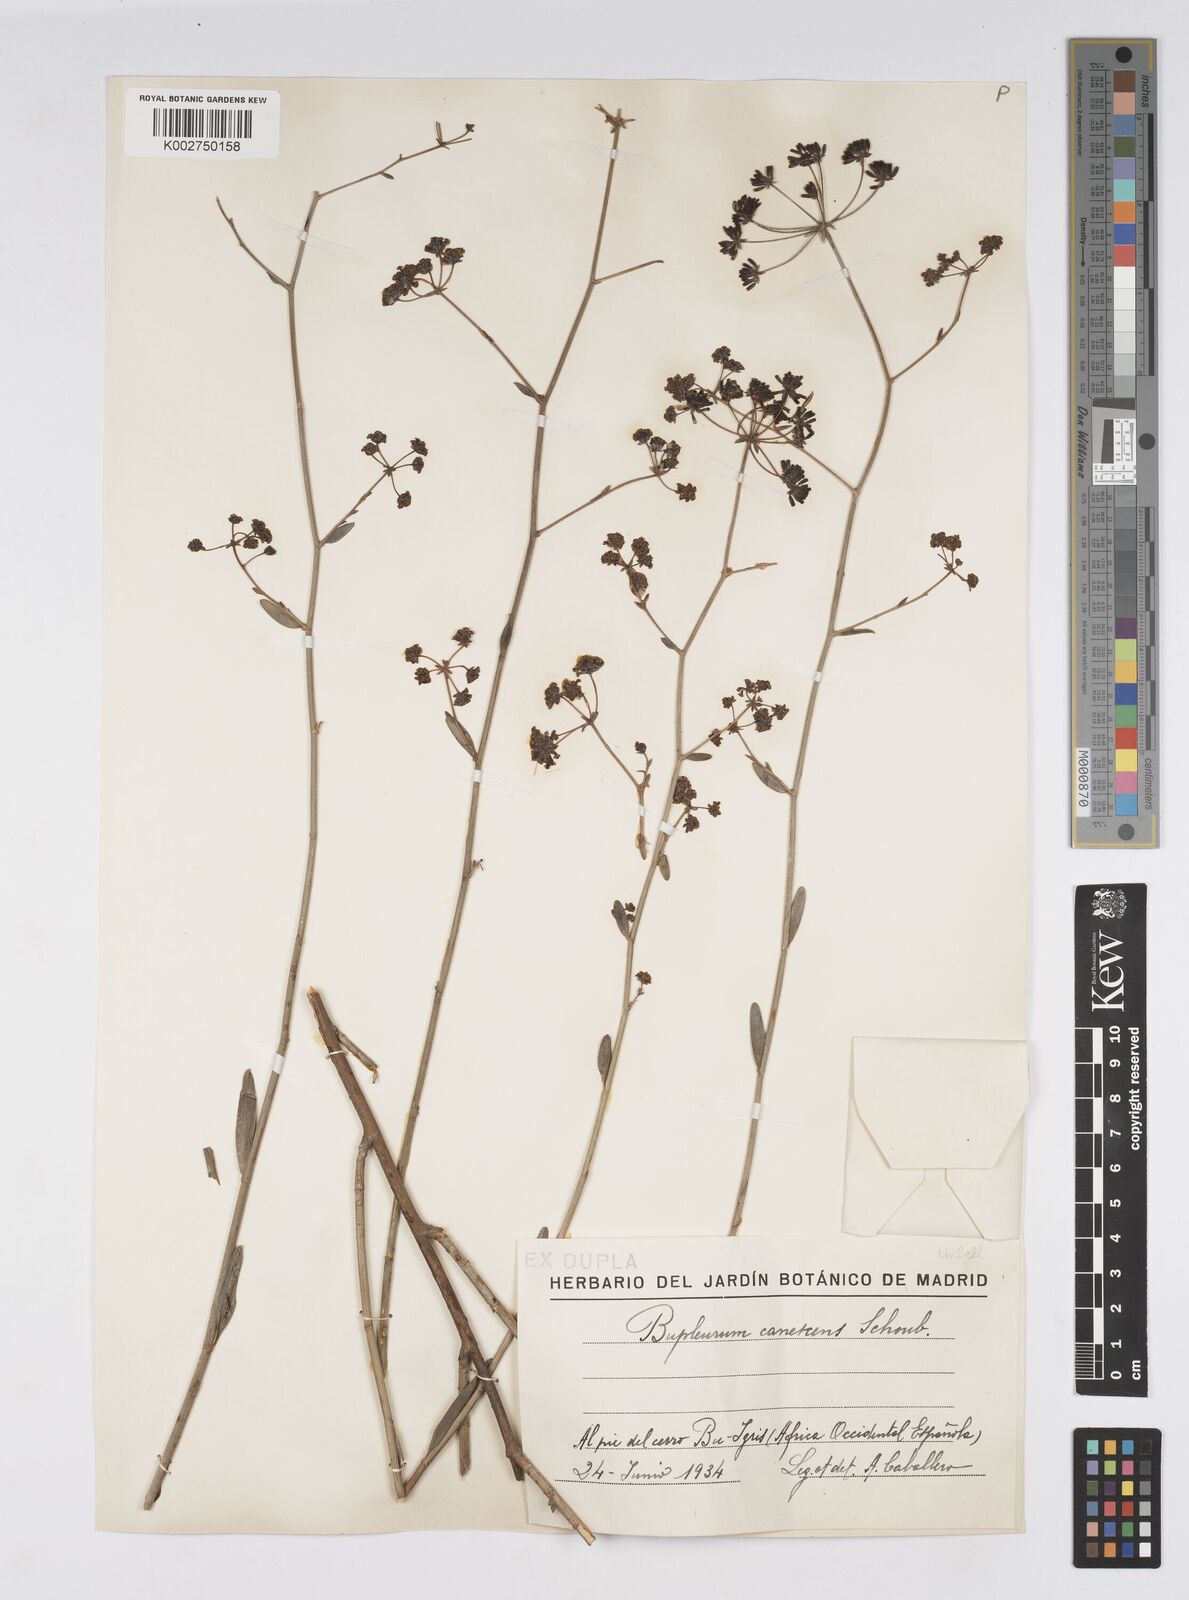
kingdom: Plantae
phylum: Tracheophyta
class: Magnoliopsida
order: Apiales
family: Apiaceae
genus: Bupleurum
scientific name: Bupleurum canescens
